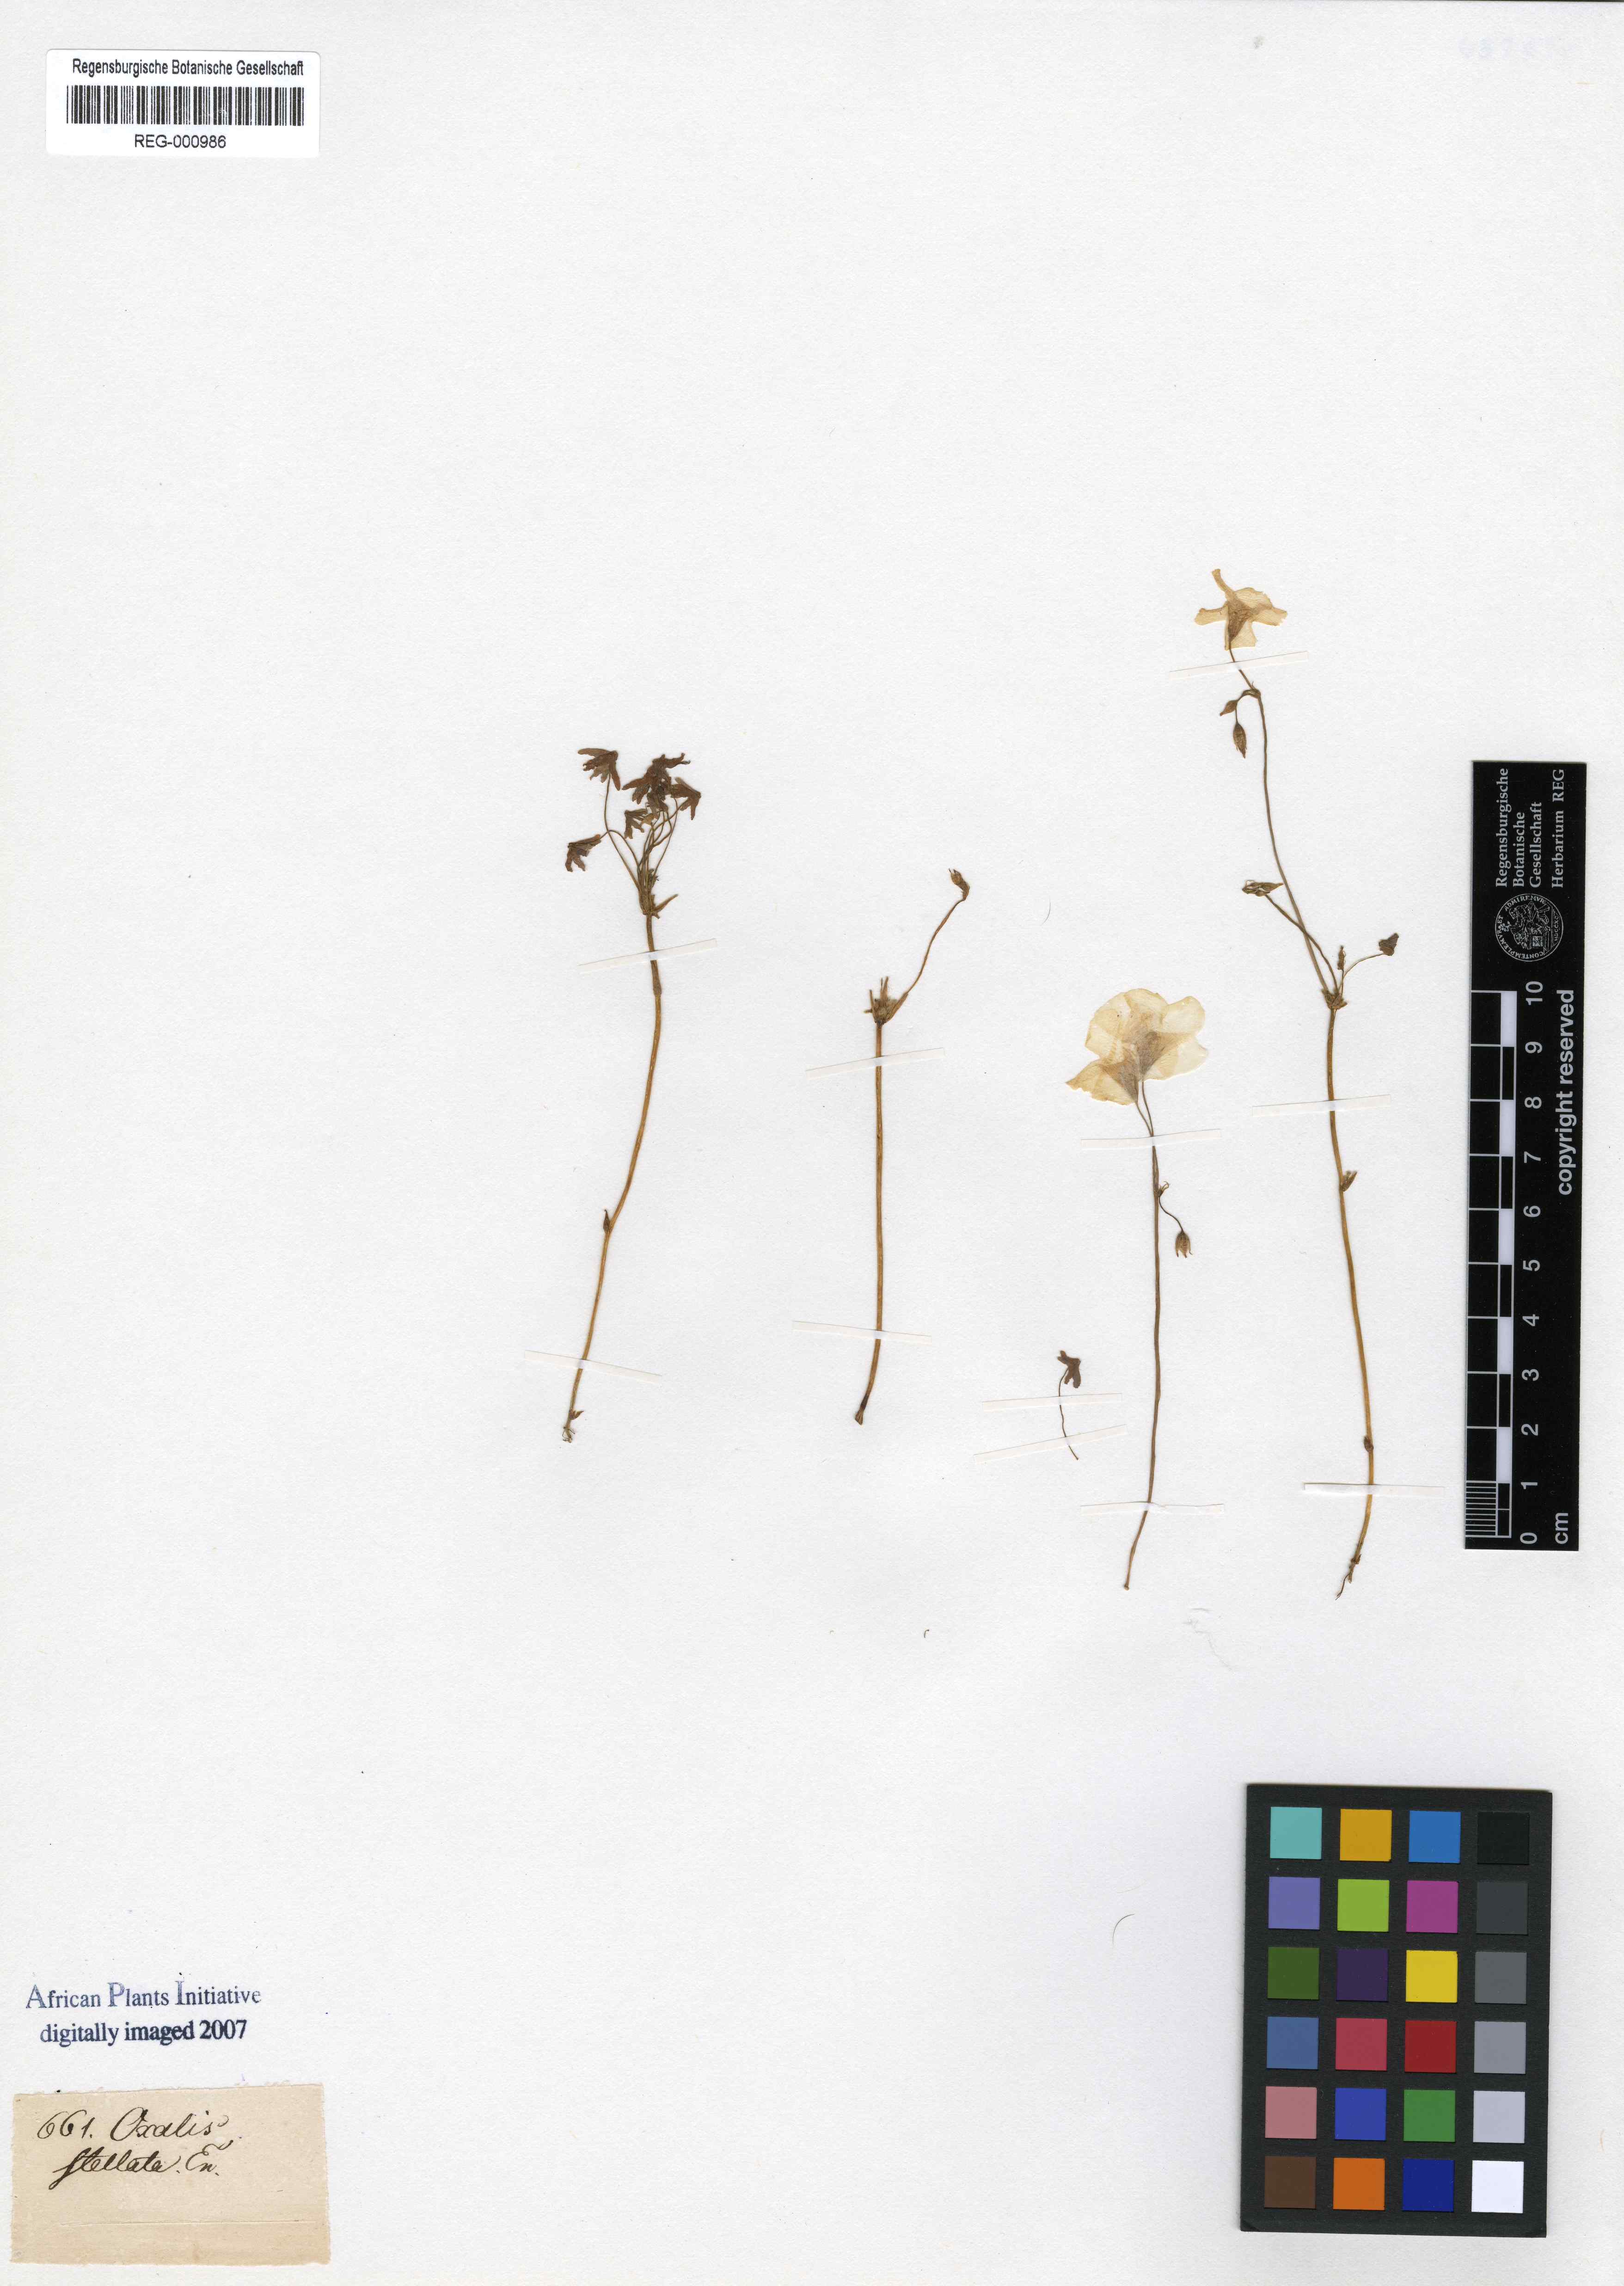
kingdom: Plantae
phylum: Tracheophyta
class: Magnoliopsida
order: Oxalidales
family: Oxalidaceae
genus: Oxalis
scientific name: Oxalis stellata
